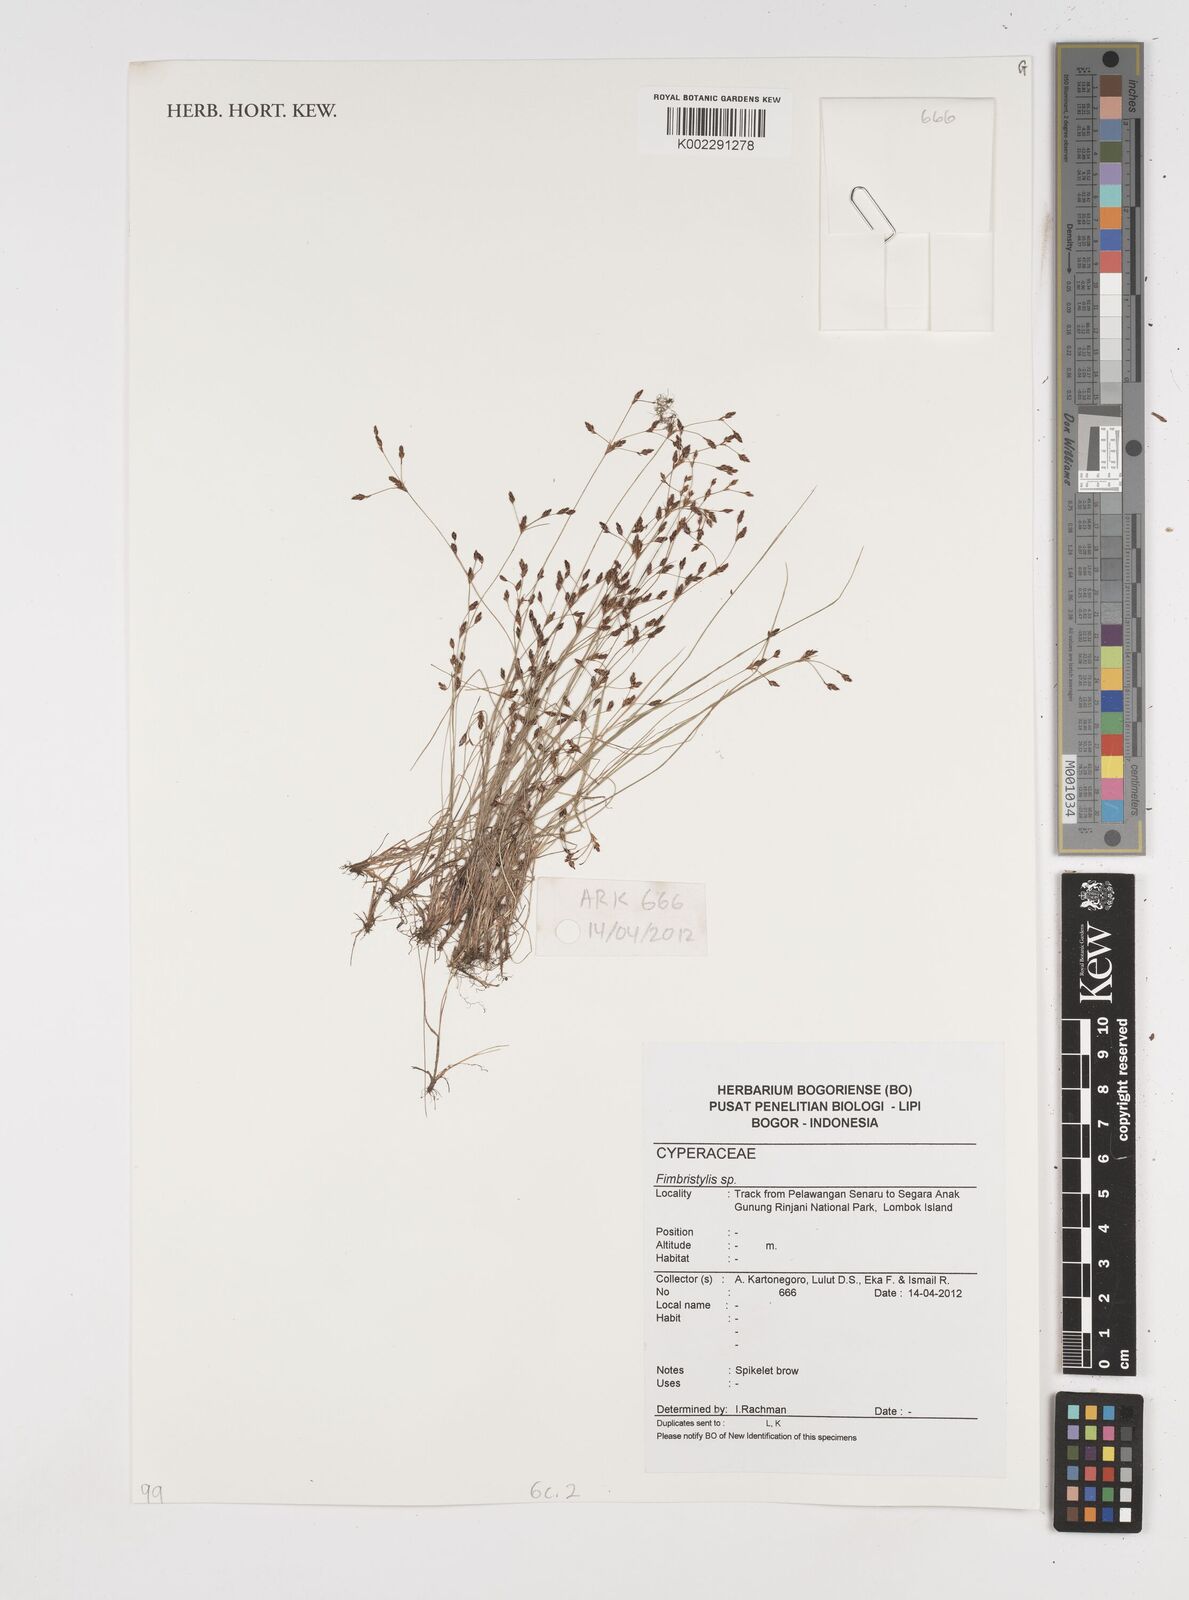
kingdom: Plantae
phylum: Tracheophyta
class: Liliopsida
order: Poales
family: Cyperaceae
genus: Fimbristylis
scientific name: Fimbristylis
